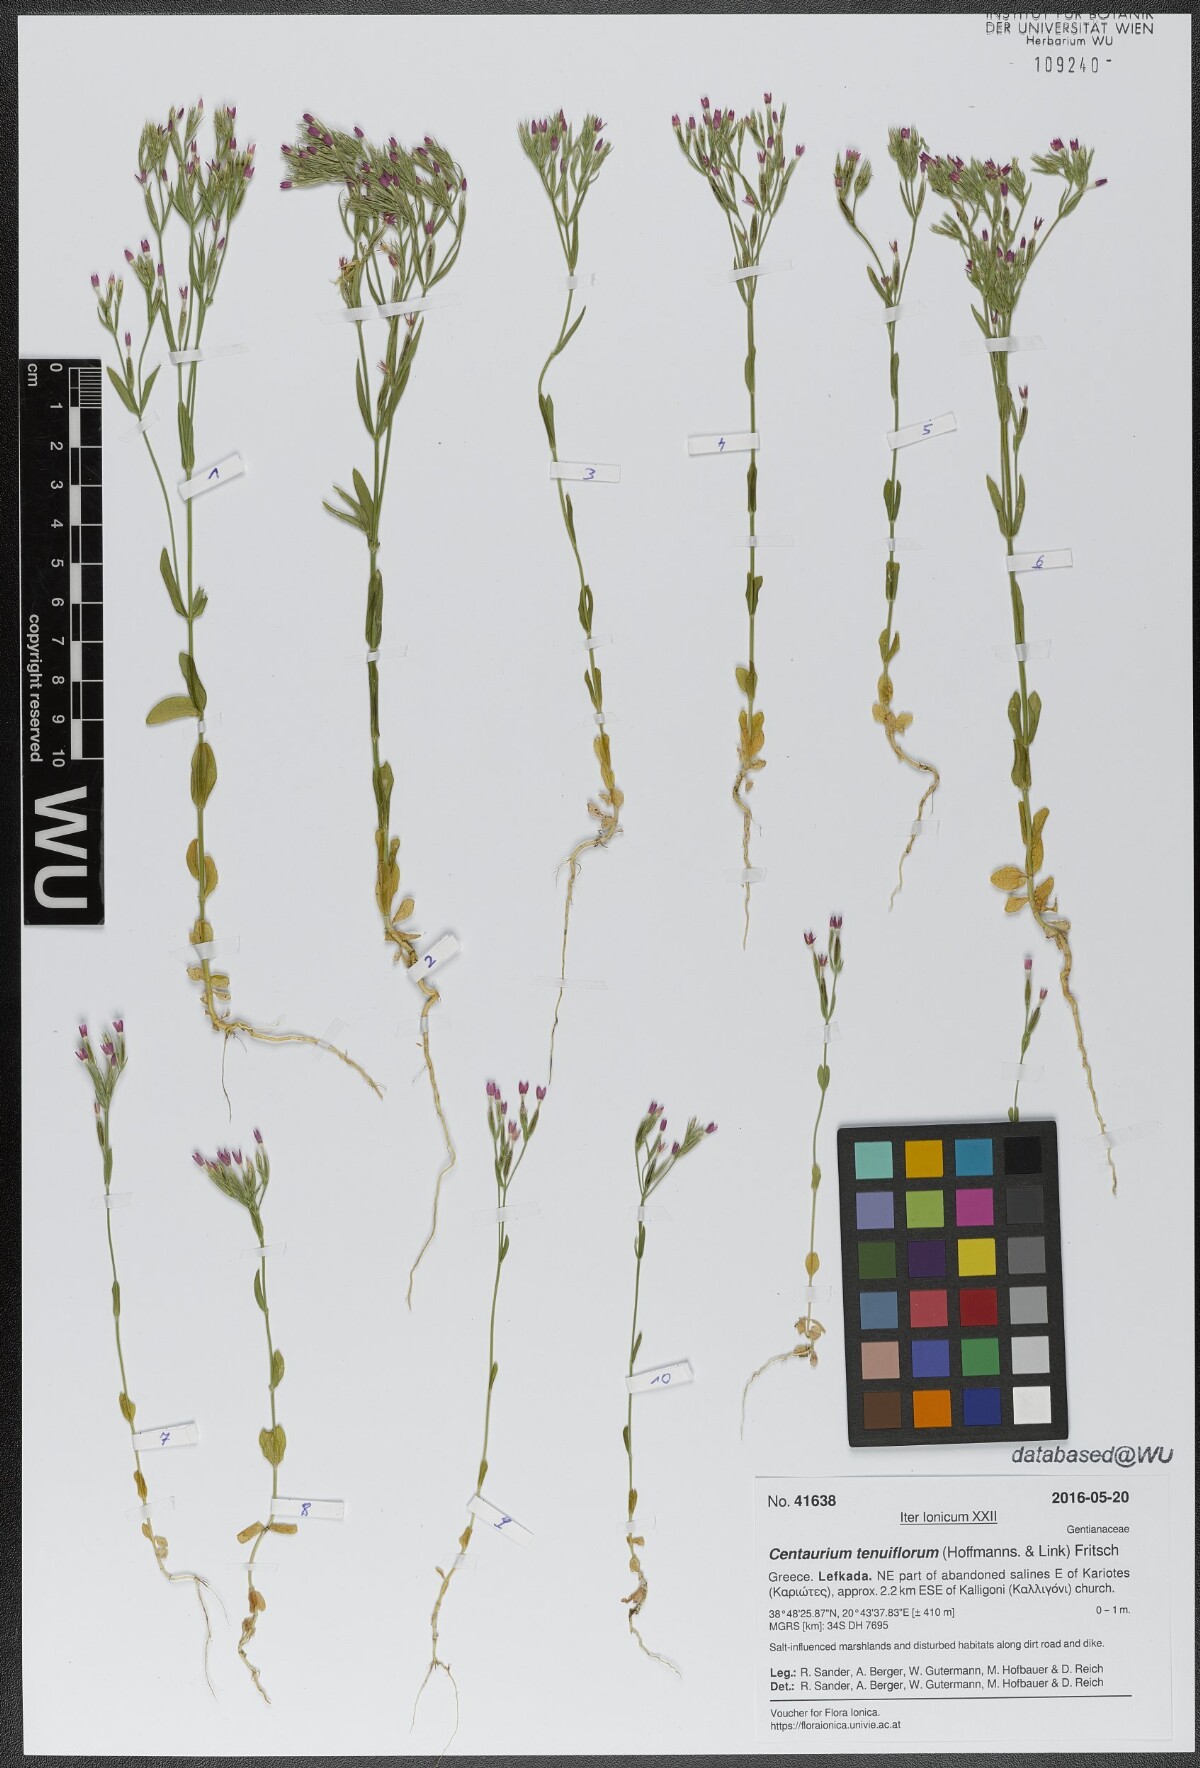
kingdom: Plantae
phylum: Tracheophyta
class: Magnoliopsida
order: Gentianales
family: Gentianaceae
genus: Centaurium
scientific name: Centaurium tenuiflorum
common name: Slender centaury
